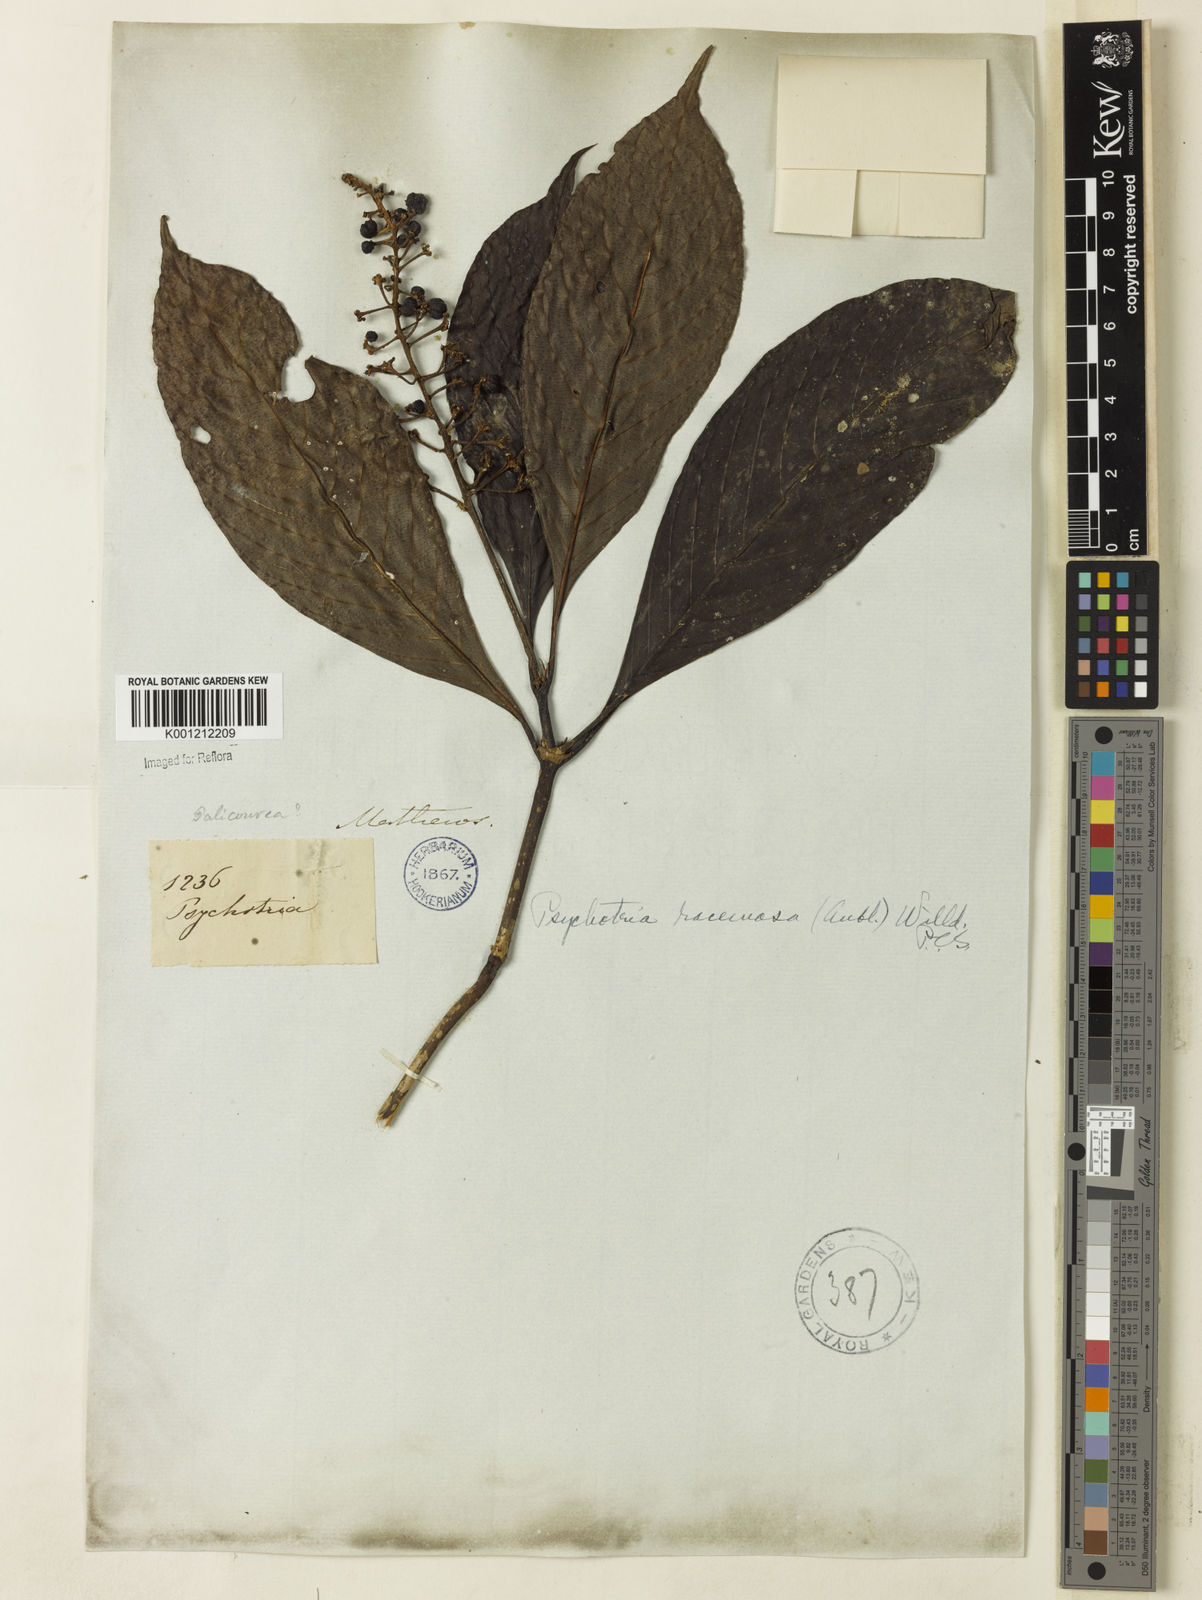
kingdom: Plantae
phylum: Tracheophyta
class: Magnoliopsida
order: Gentianales
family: Rubiaceae
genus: Palicourea
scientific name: Palicourea racemosa
